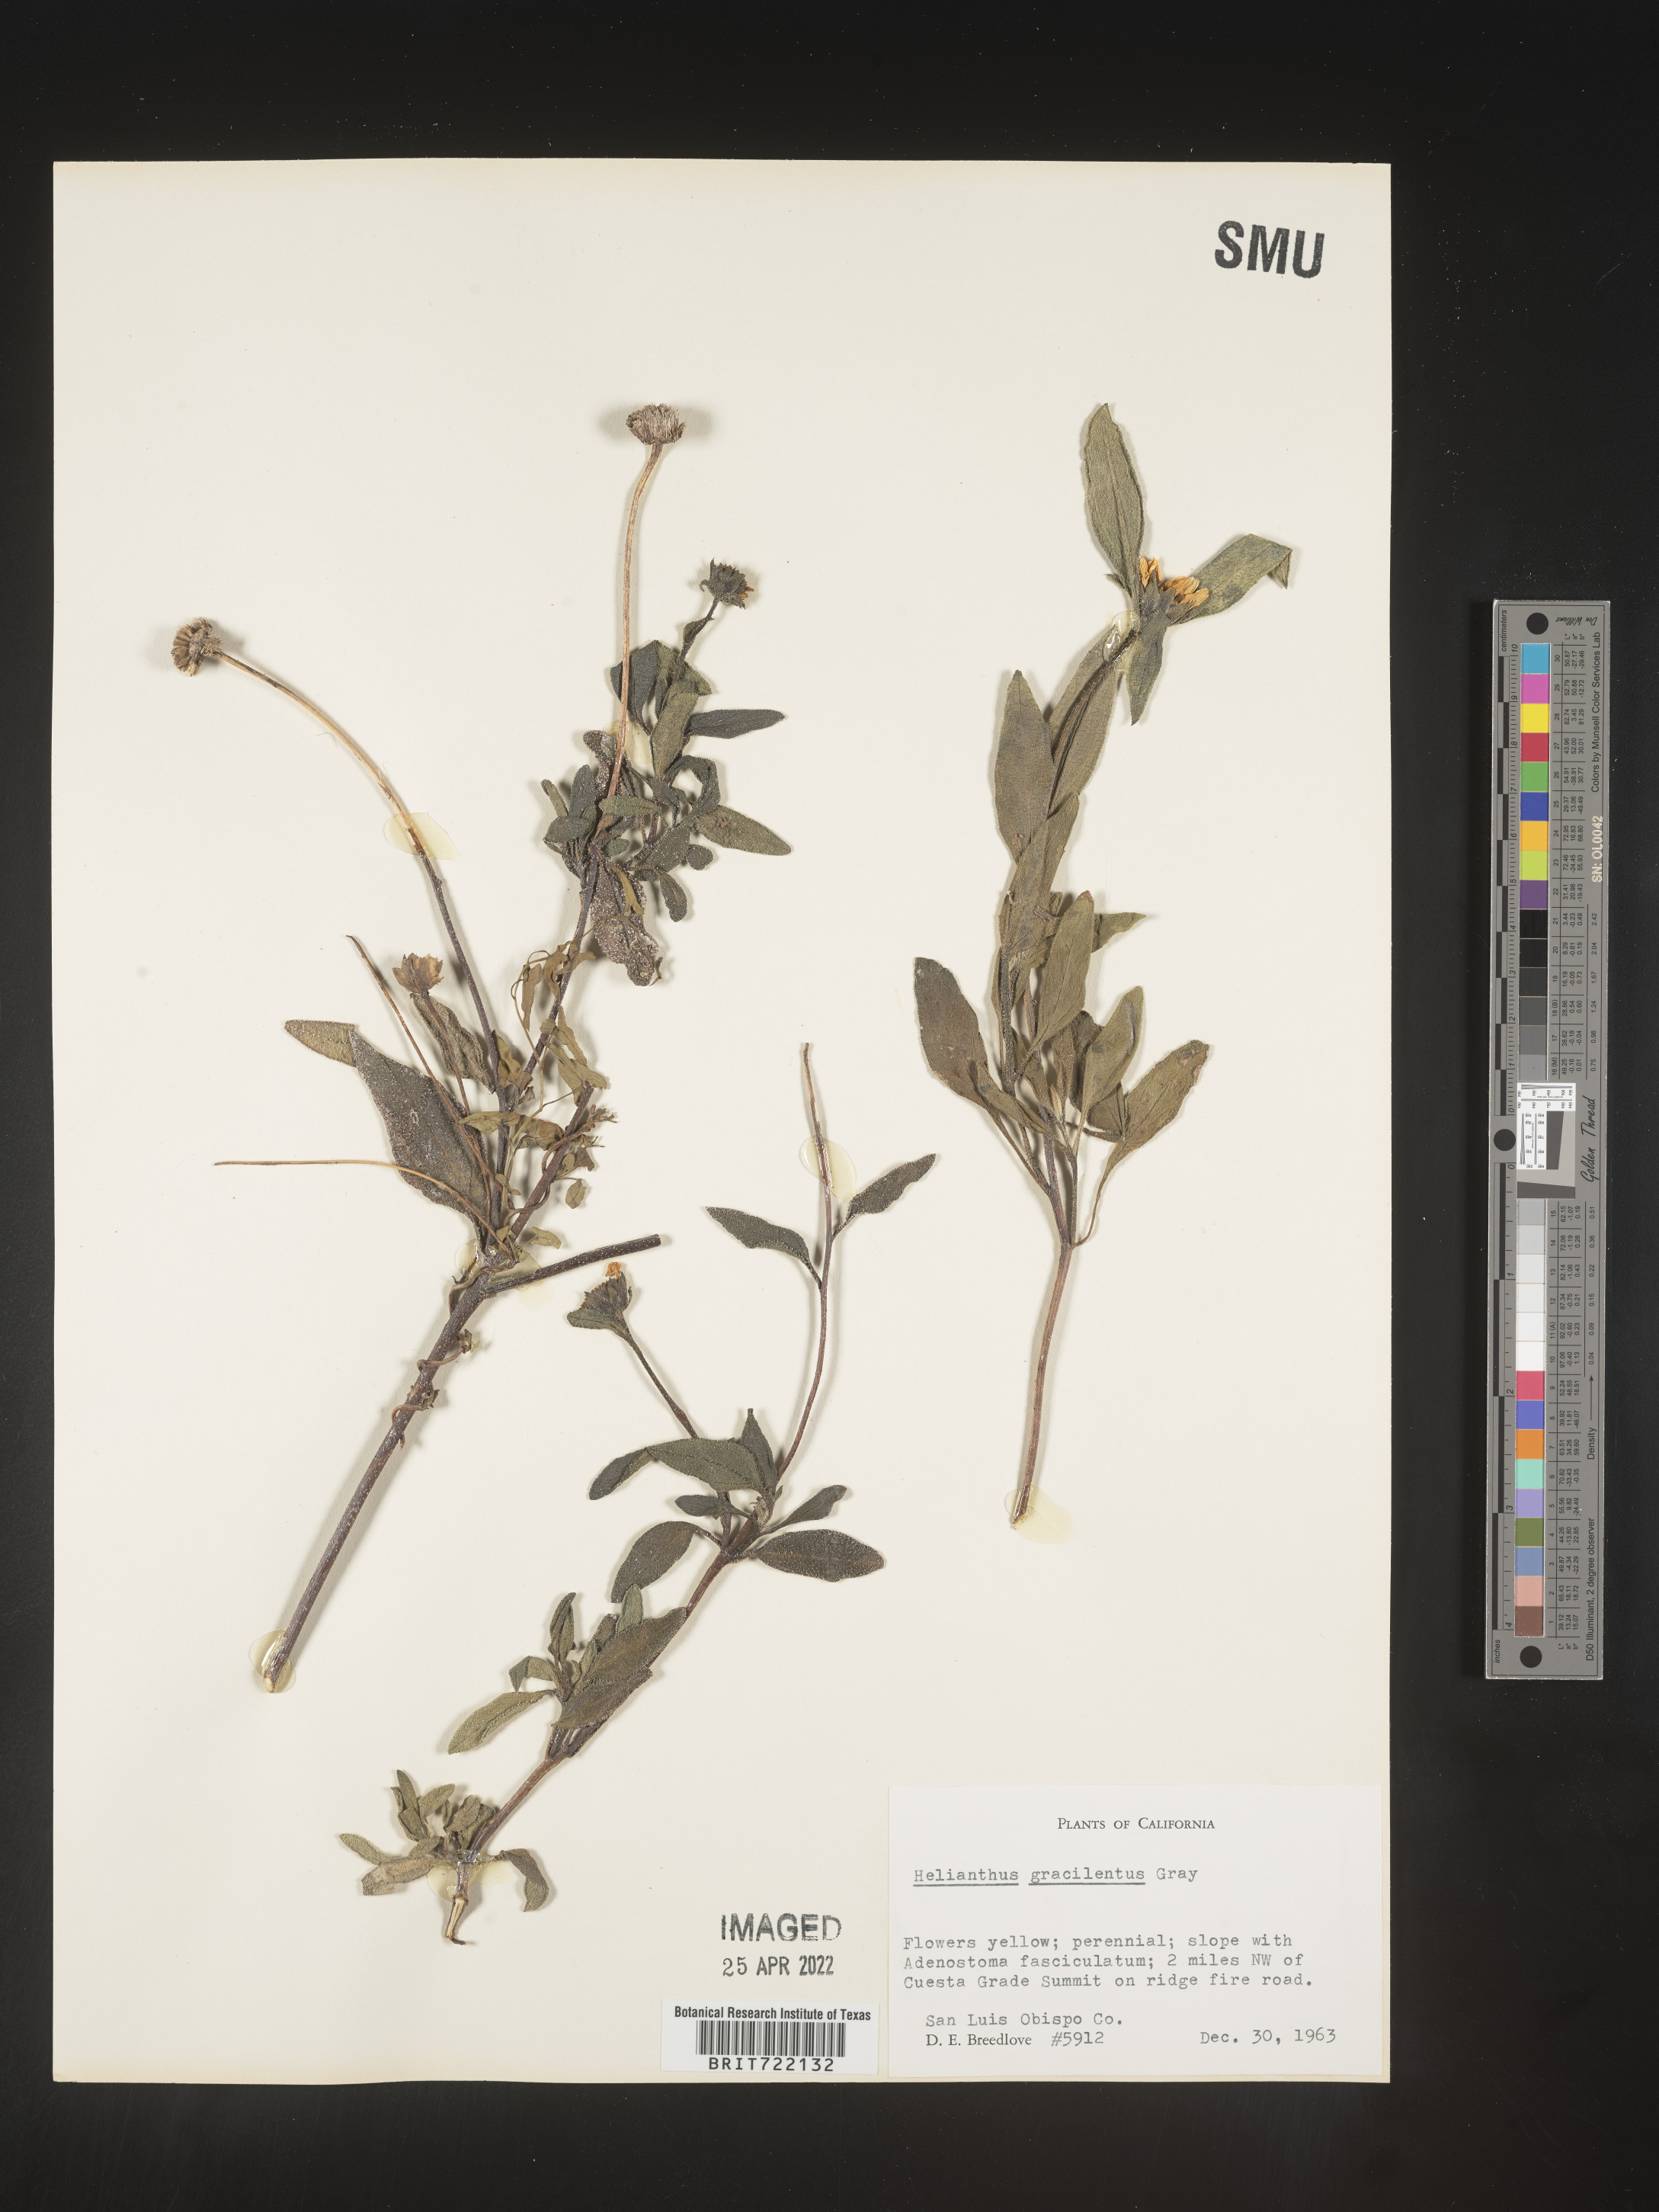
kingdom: Plantae
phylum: Tracheophyta
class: Magnoliopsida
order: Asterales
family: Asteraceae
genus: Helianthus
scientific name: Helianthus gracilentus
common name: Slender sunflower
